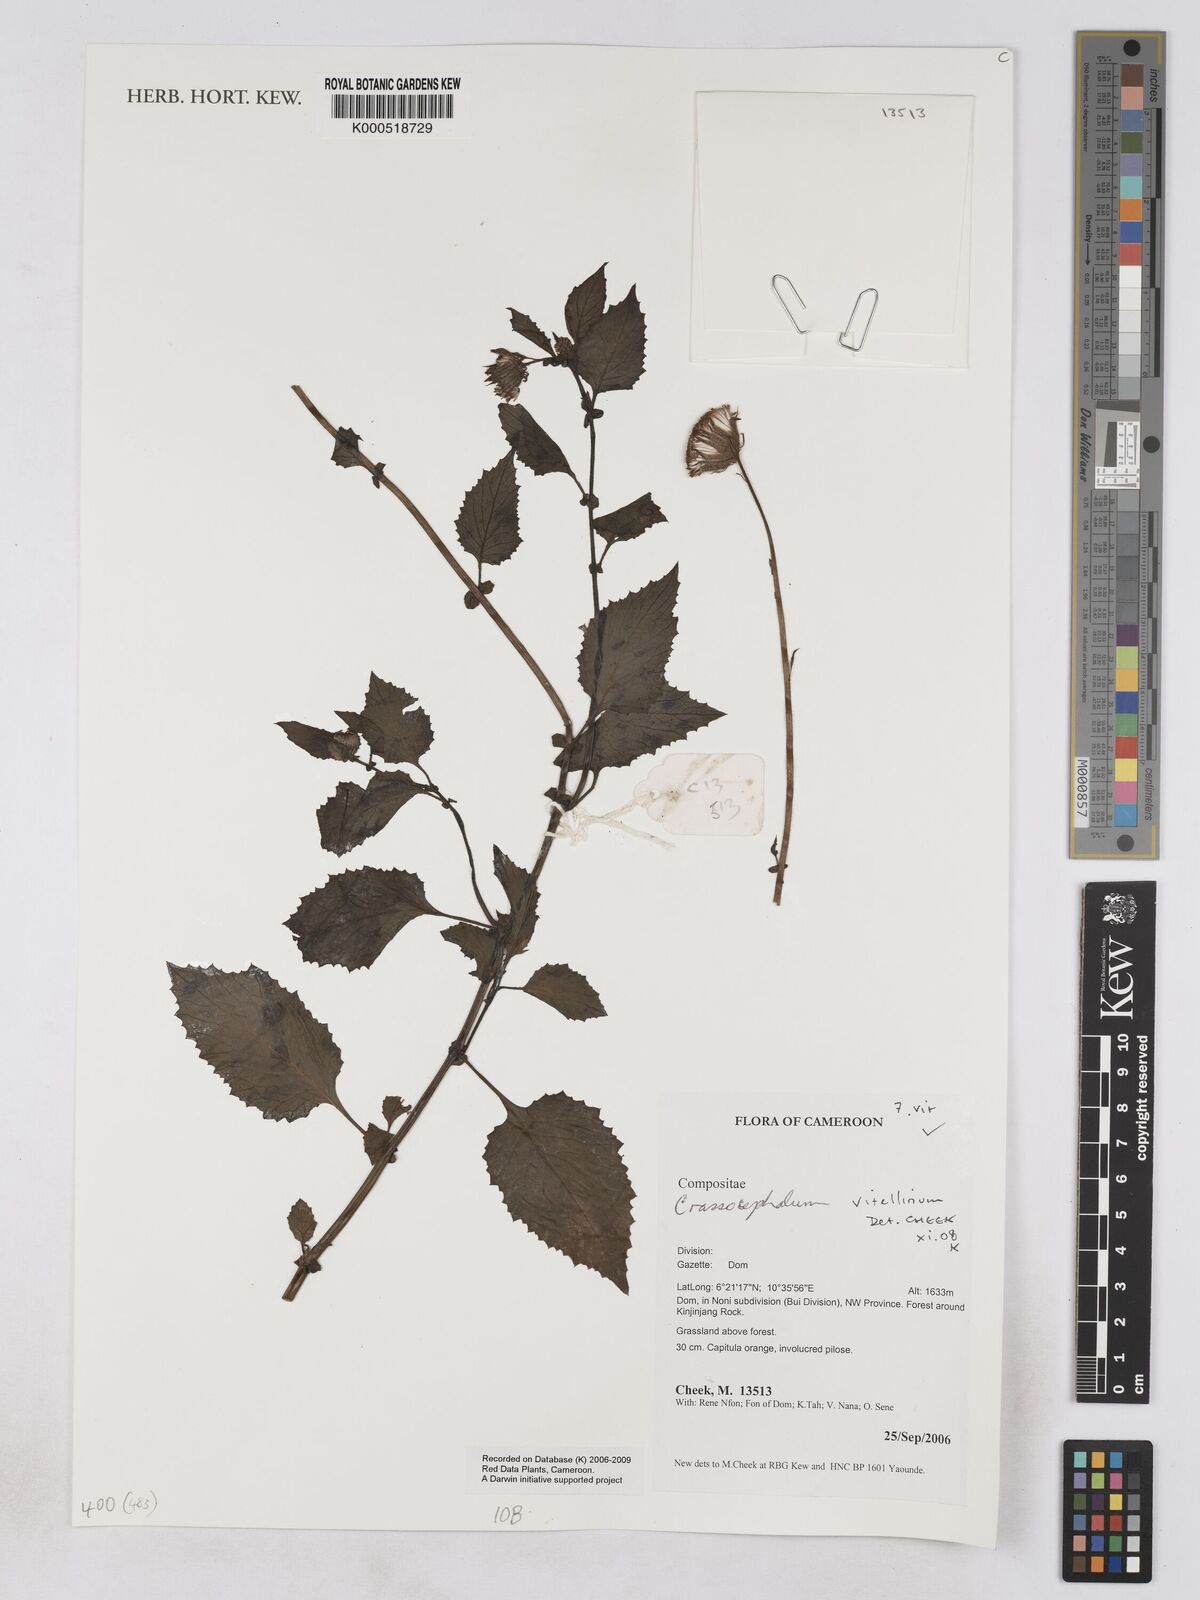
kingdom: Plantae
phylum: Tracheophyta
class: Magnoliopsida
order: Asterales
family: Asteraceae
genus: Crassocephalum
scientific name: Crassocephalum vitellinum
